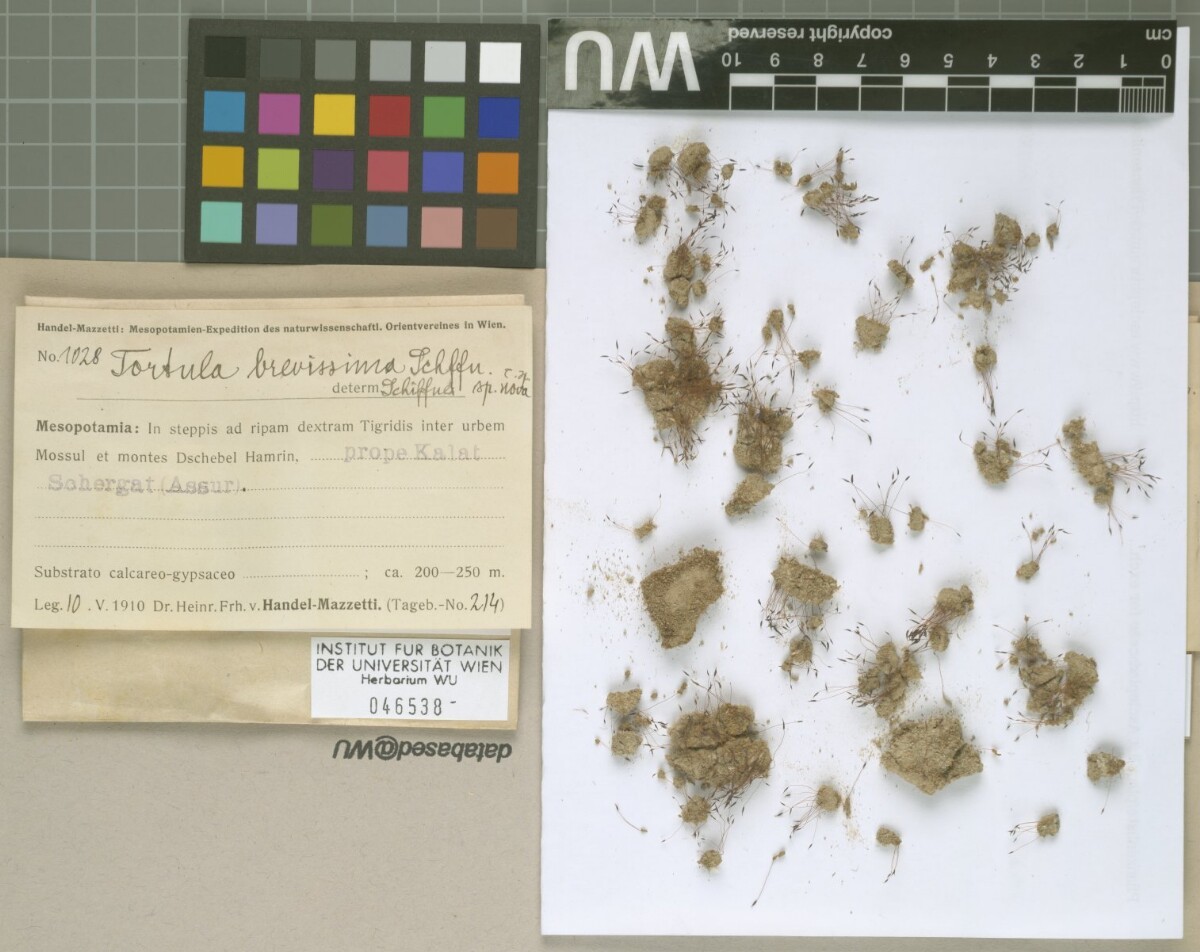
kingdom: Plantae
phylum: Bryophyta
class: Bryopsida
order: Pottiales
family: Pottiaceae
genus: Tortula
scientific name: Tortula brevissima
